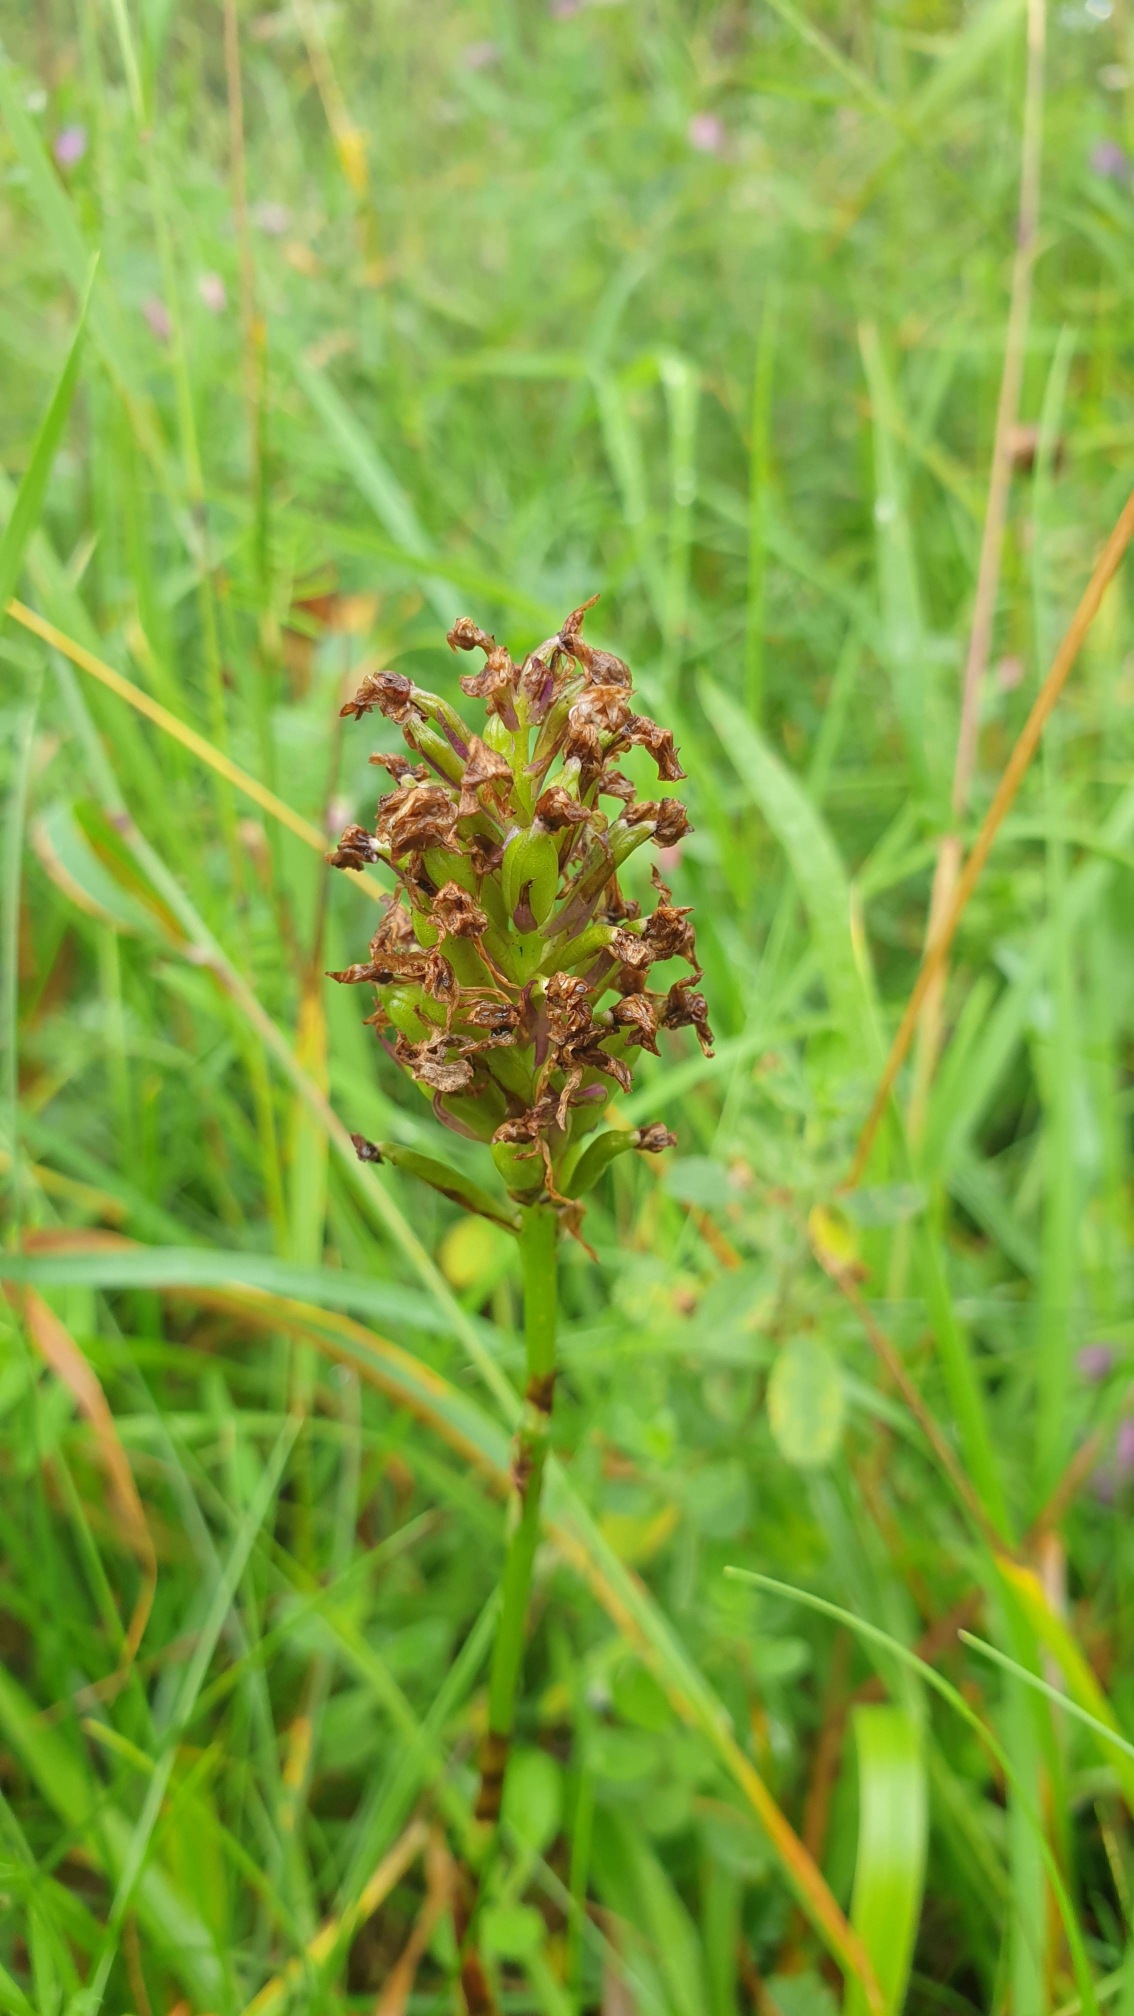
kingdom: Plantae
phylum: Tracheophyta
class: Liliopsida
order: Asparagales
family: Orchidaceae
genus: Anacamptis
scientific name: Anacamptis pyramidalis
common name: Horndrager
